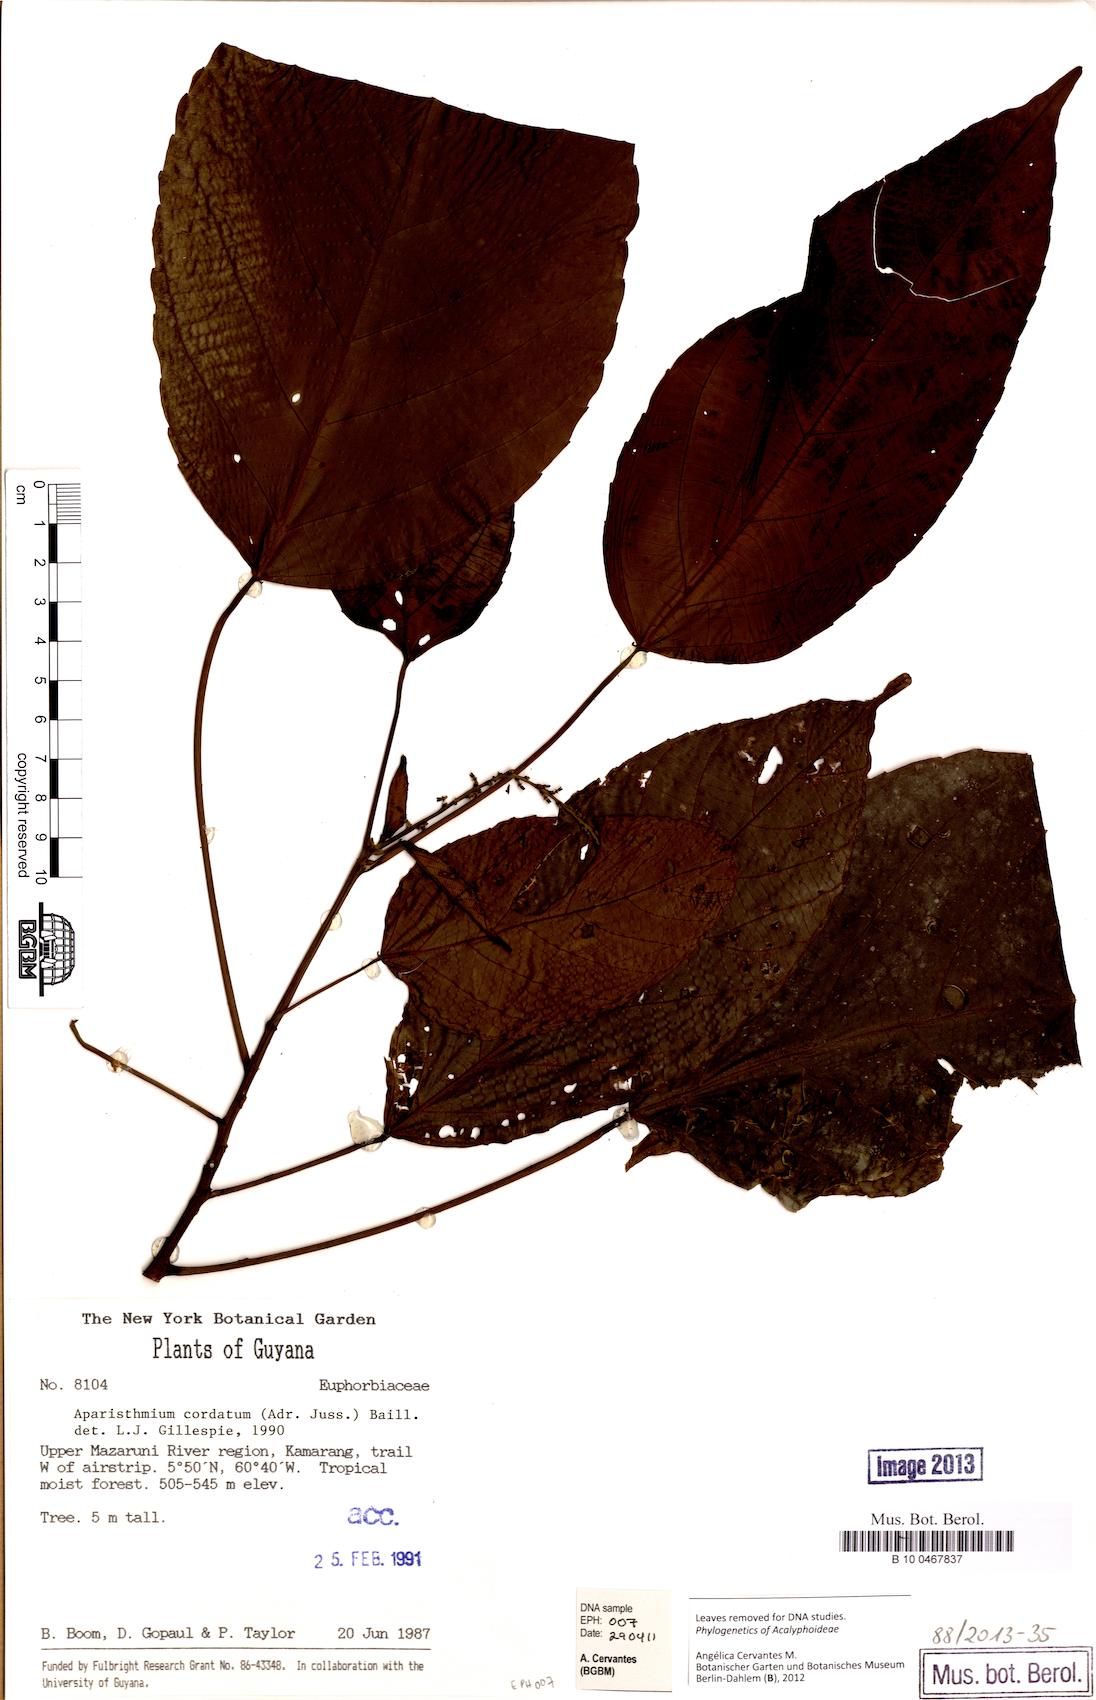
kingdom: Plantae
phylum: Tracheophyta
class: Magnoliopsida
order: Malpighiales
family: Euphorbiaceae
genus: Aparisthmium
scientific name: Aparisthmium cordatum
